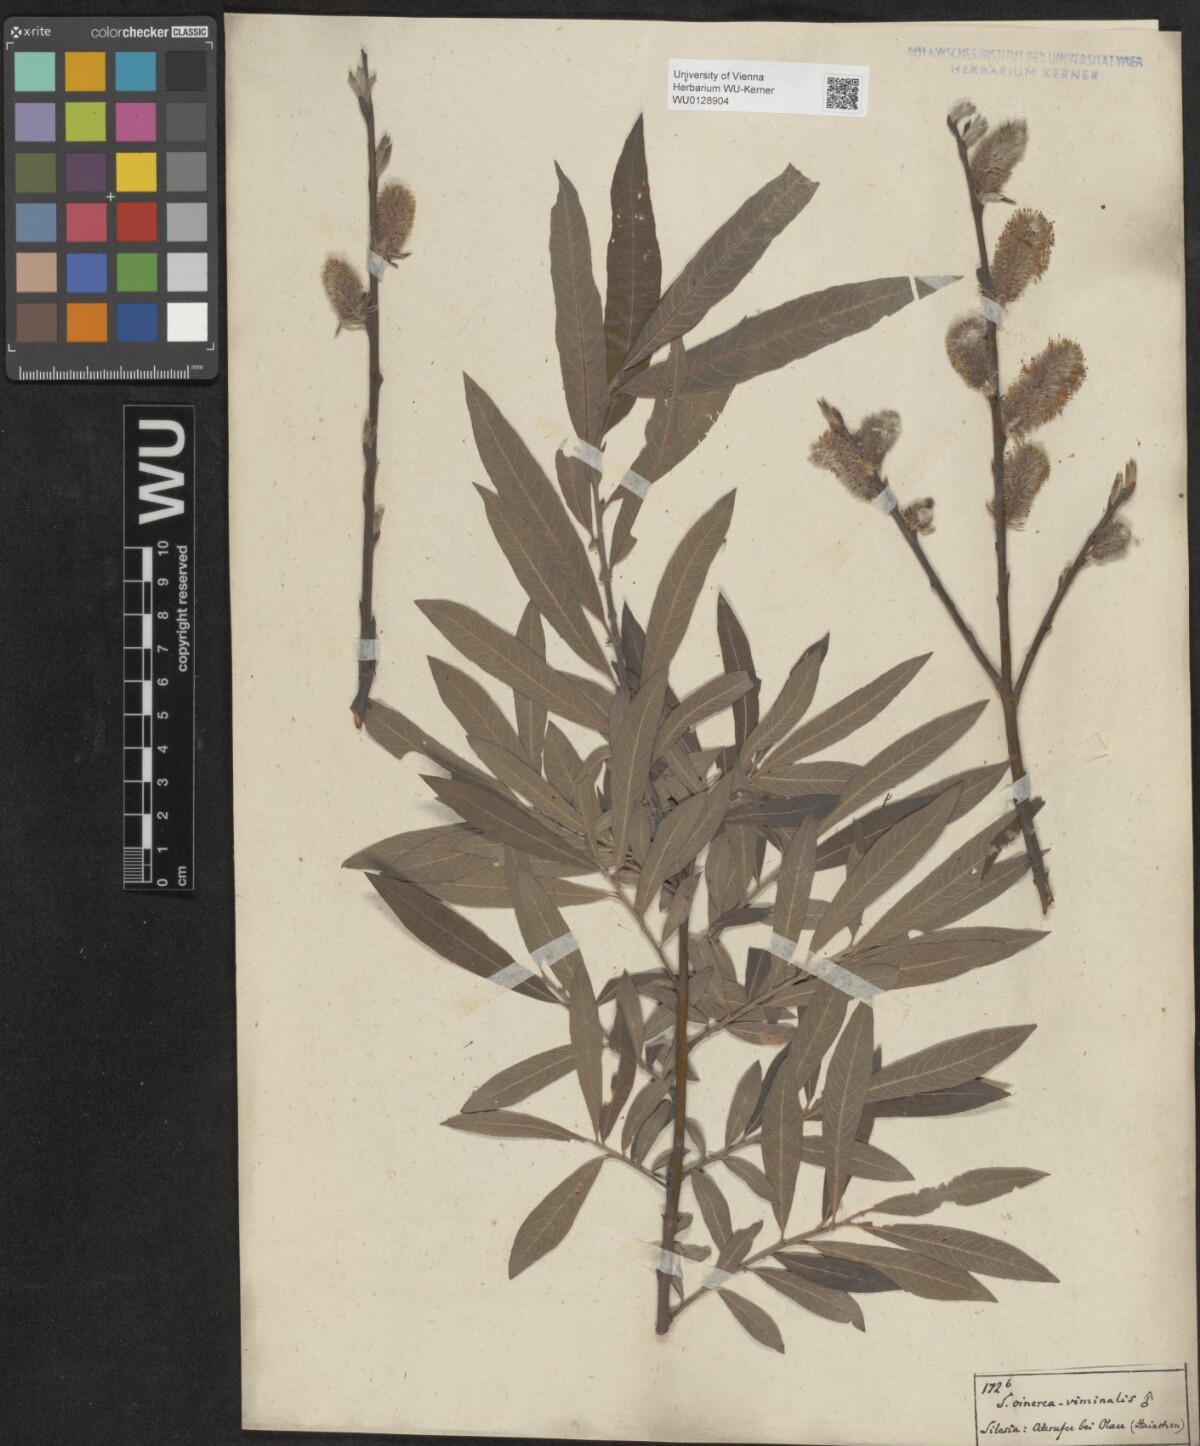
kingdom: Plantae
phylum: Tracheophyta
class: Magnoliopsida
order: Malpighiales
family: Salicaceae
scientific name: Salicaceae
